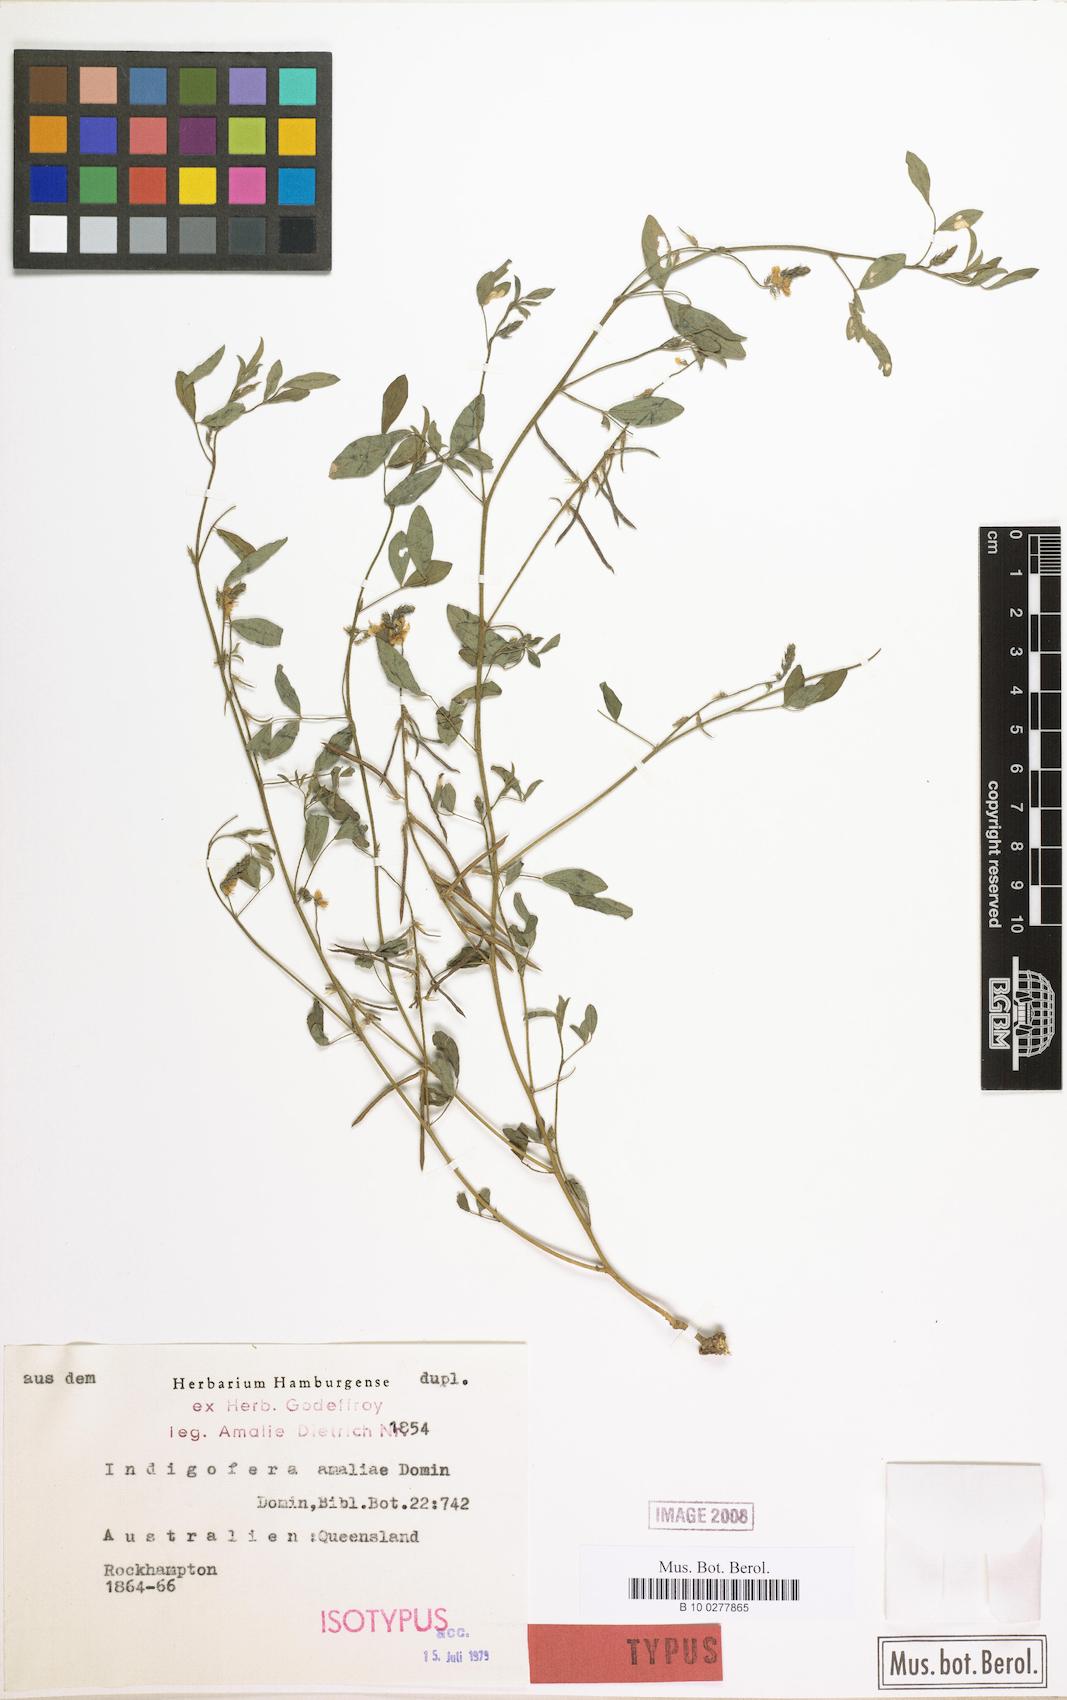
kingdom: Plantae
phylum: Tracheophyta
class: Magnoliopsida
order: Fabales
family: Fabaceae
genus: Indigofera
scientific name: Indigofera polygaloides
